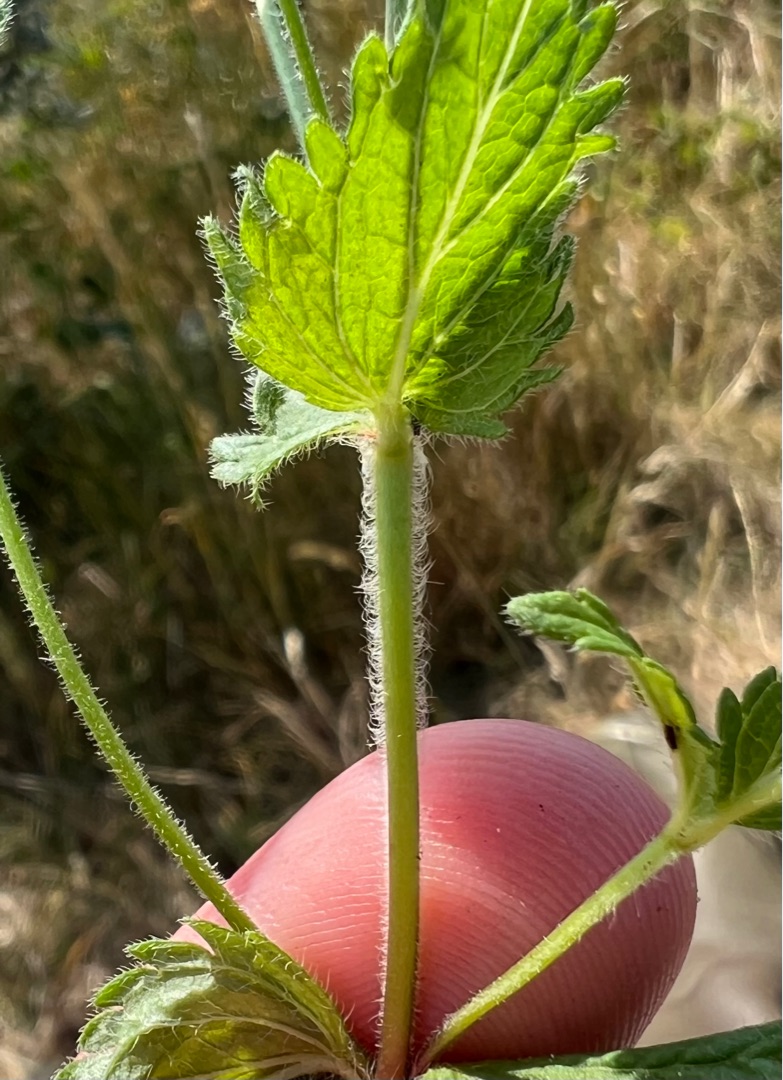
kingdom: Plantae
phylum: Tracheophyta
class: Magnoliopsida
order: Lamiales
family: Plantaginaceae
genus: Veronica
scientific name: Veronica chamaedrys
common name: Tveskægget ærenpris
